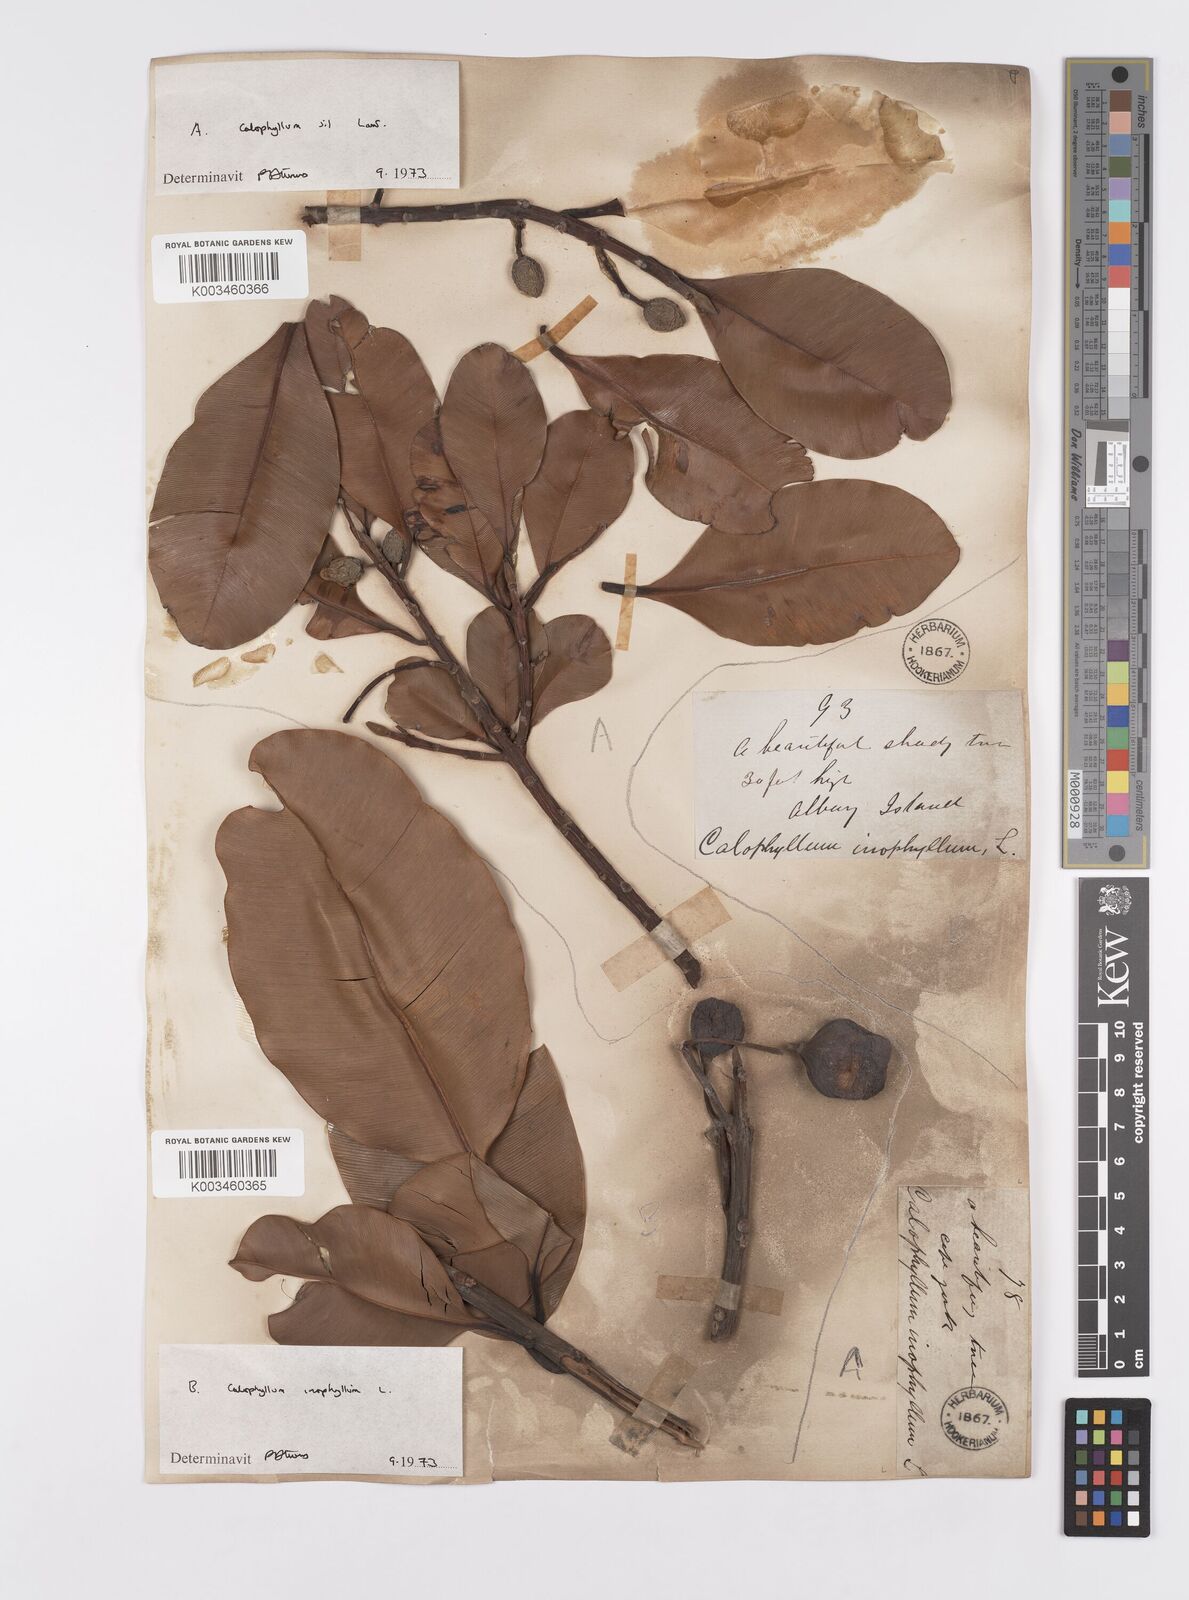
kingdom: Plantae
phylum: Tracheophyta
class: Magnoliopsida
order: Malpighiales
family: Calophyllaceae
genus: Calophyllum
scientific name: Calophyllum inophyllum
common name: Alexandrian laurel
